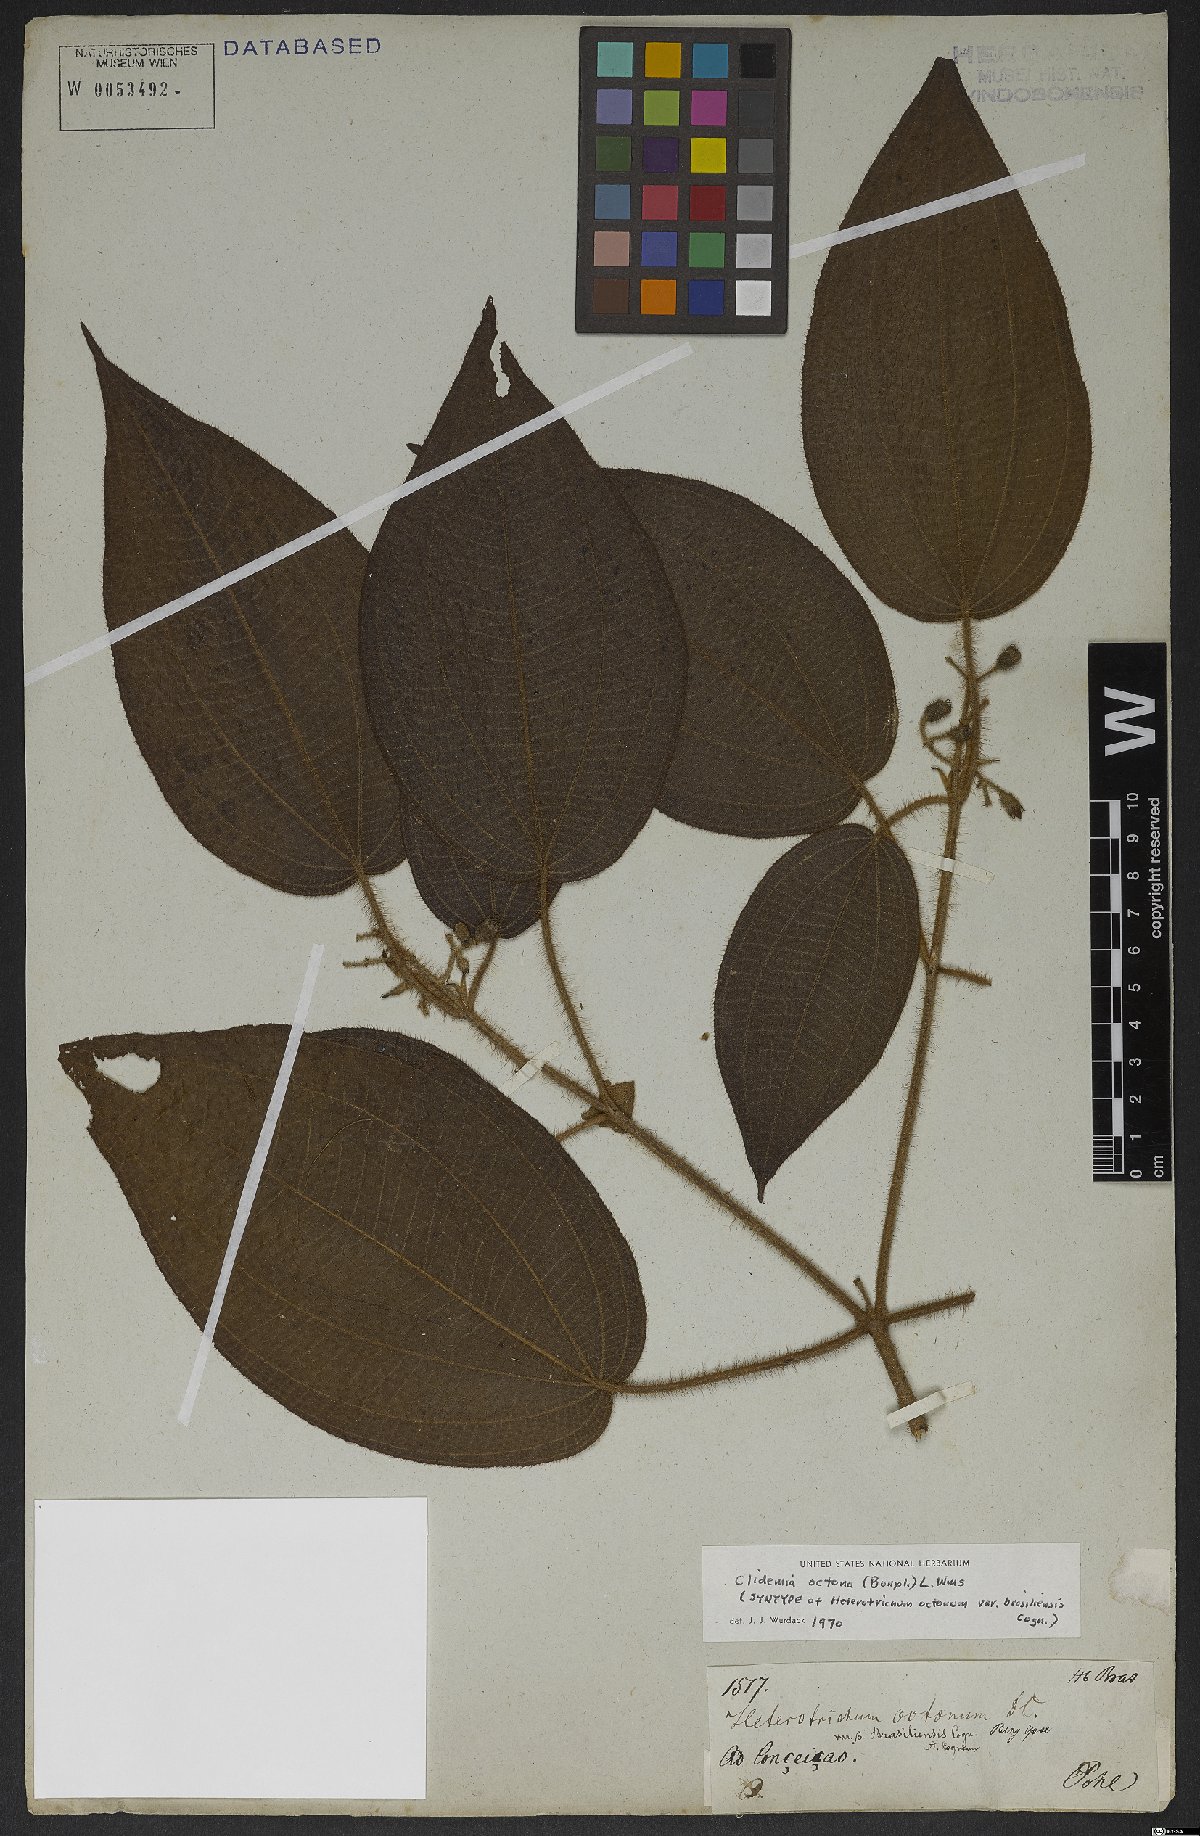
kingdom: Plantae
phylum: Tracheophyta
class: Magnoliopsida
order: Myrtales
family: Melastomataceae
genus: Miconia
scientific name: Miconia octona
